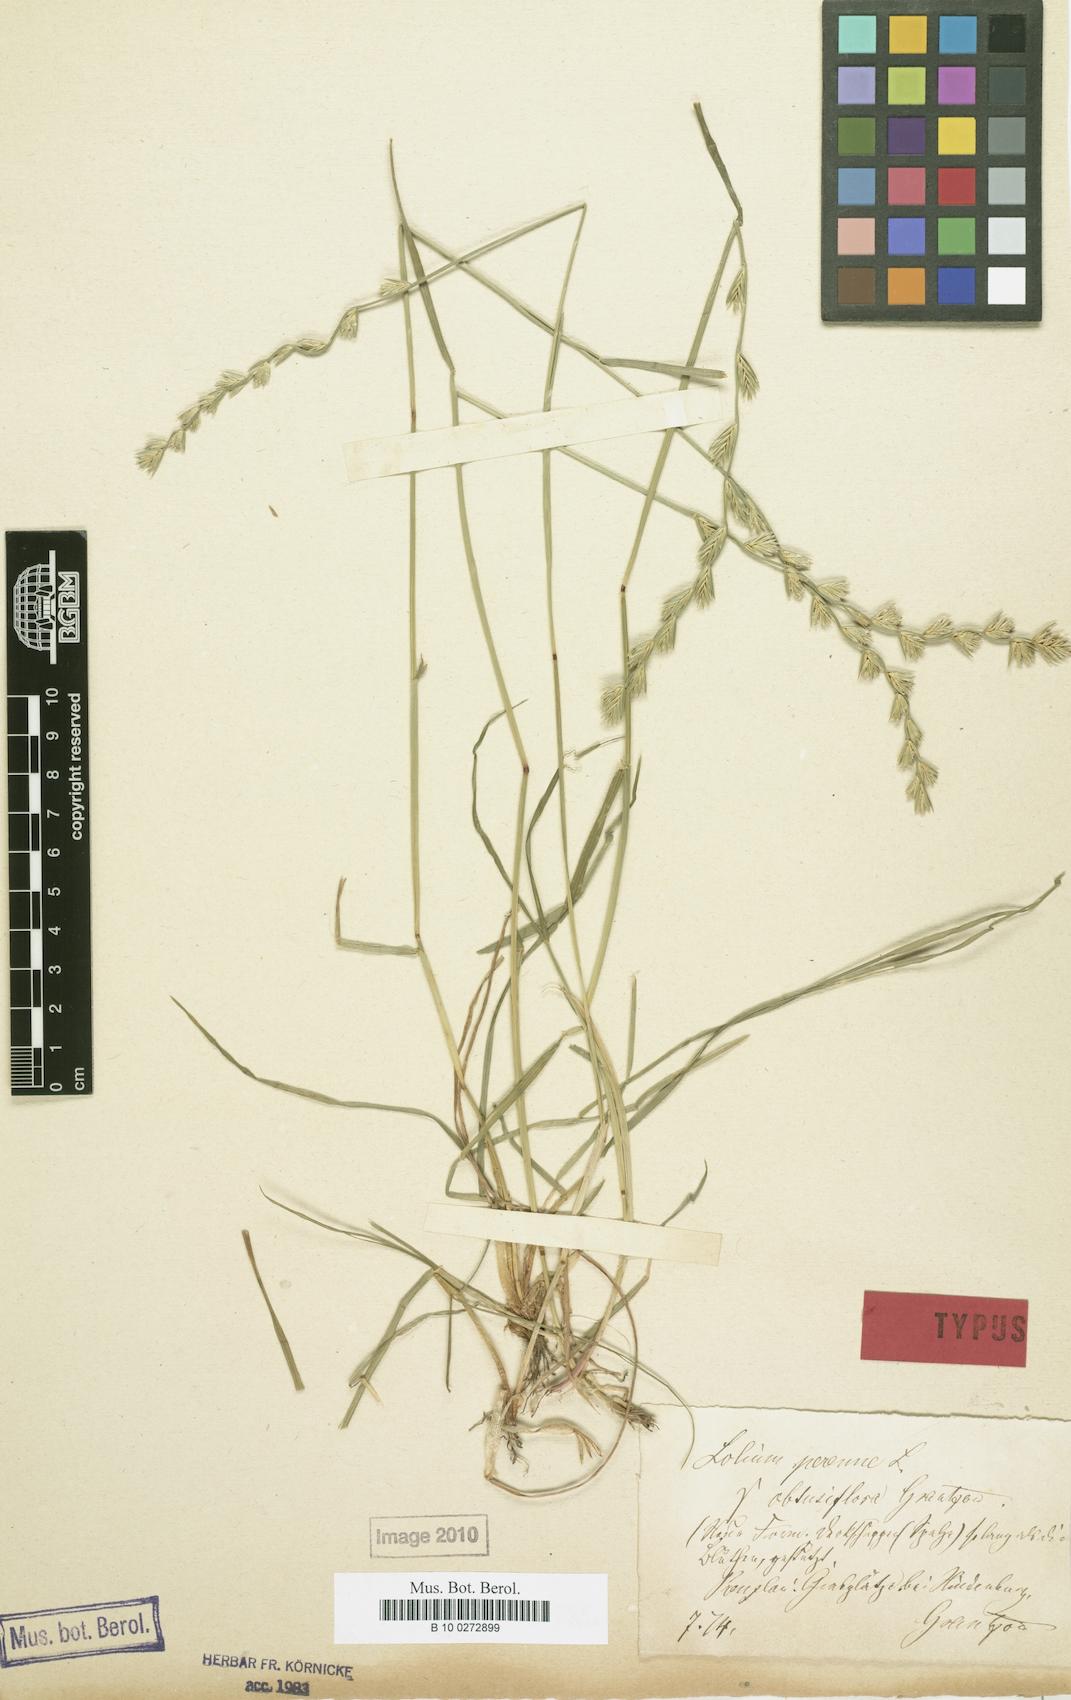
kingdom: Plantae
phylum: Tracheophyta
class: Liliopsida
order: Poales
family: Poaceae
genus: Lolium
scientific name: Lolium perenne
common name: Perennial ryegrass
